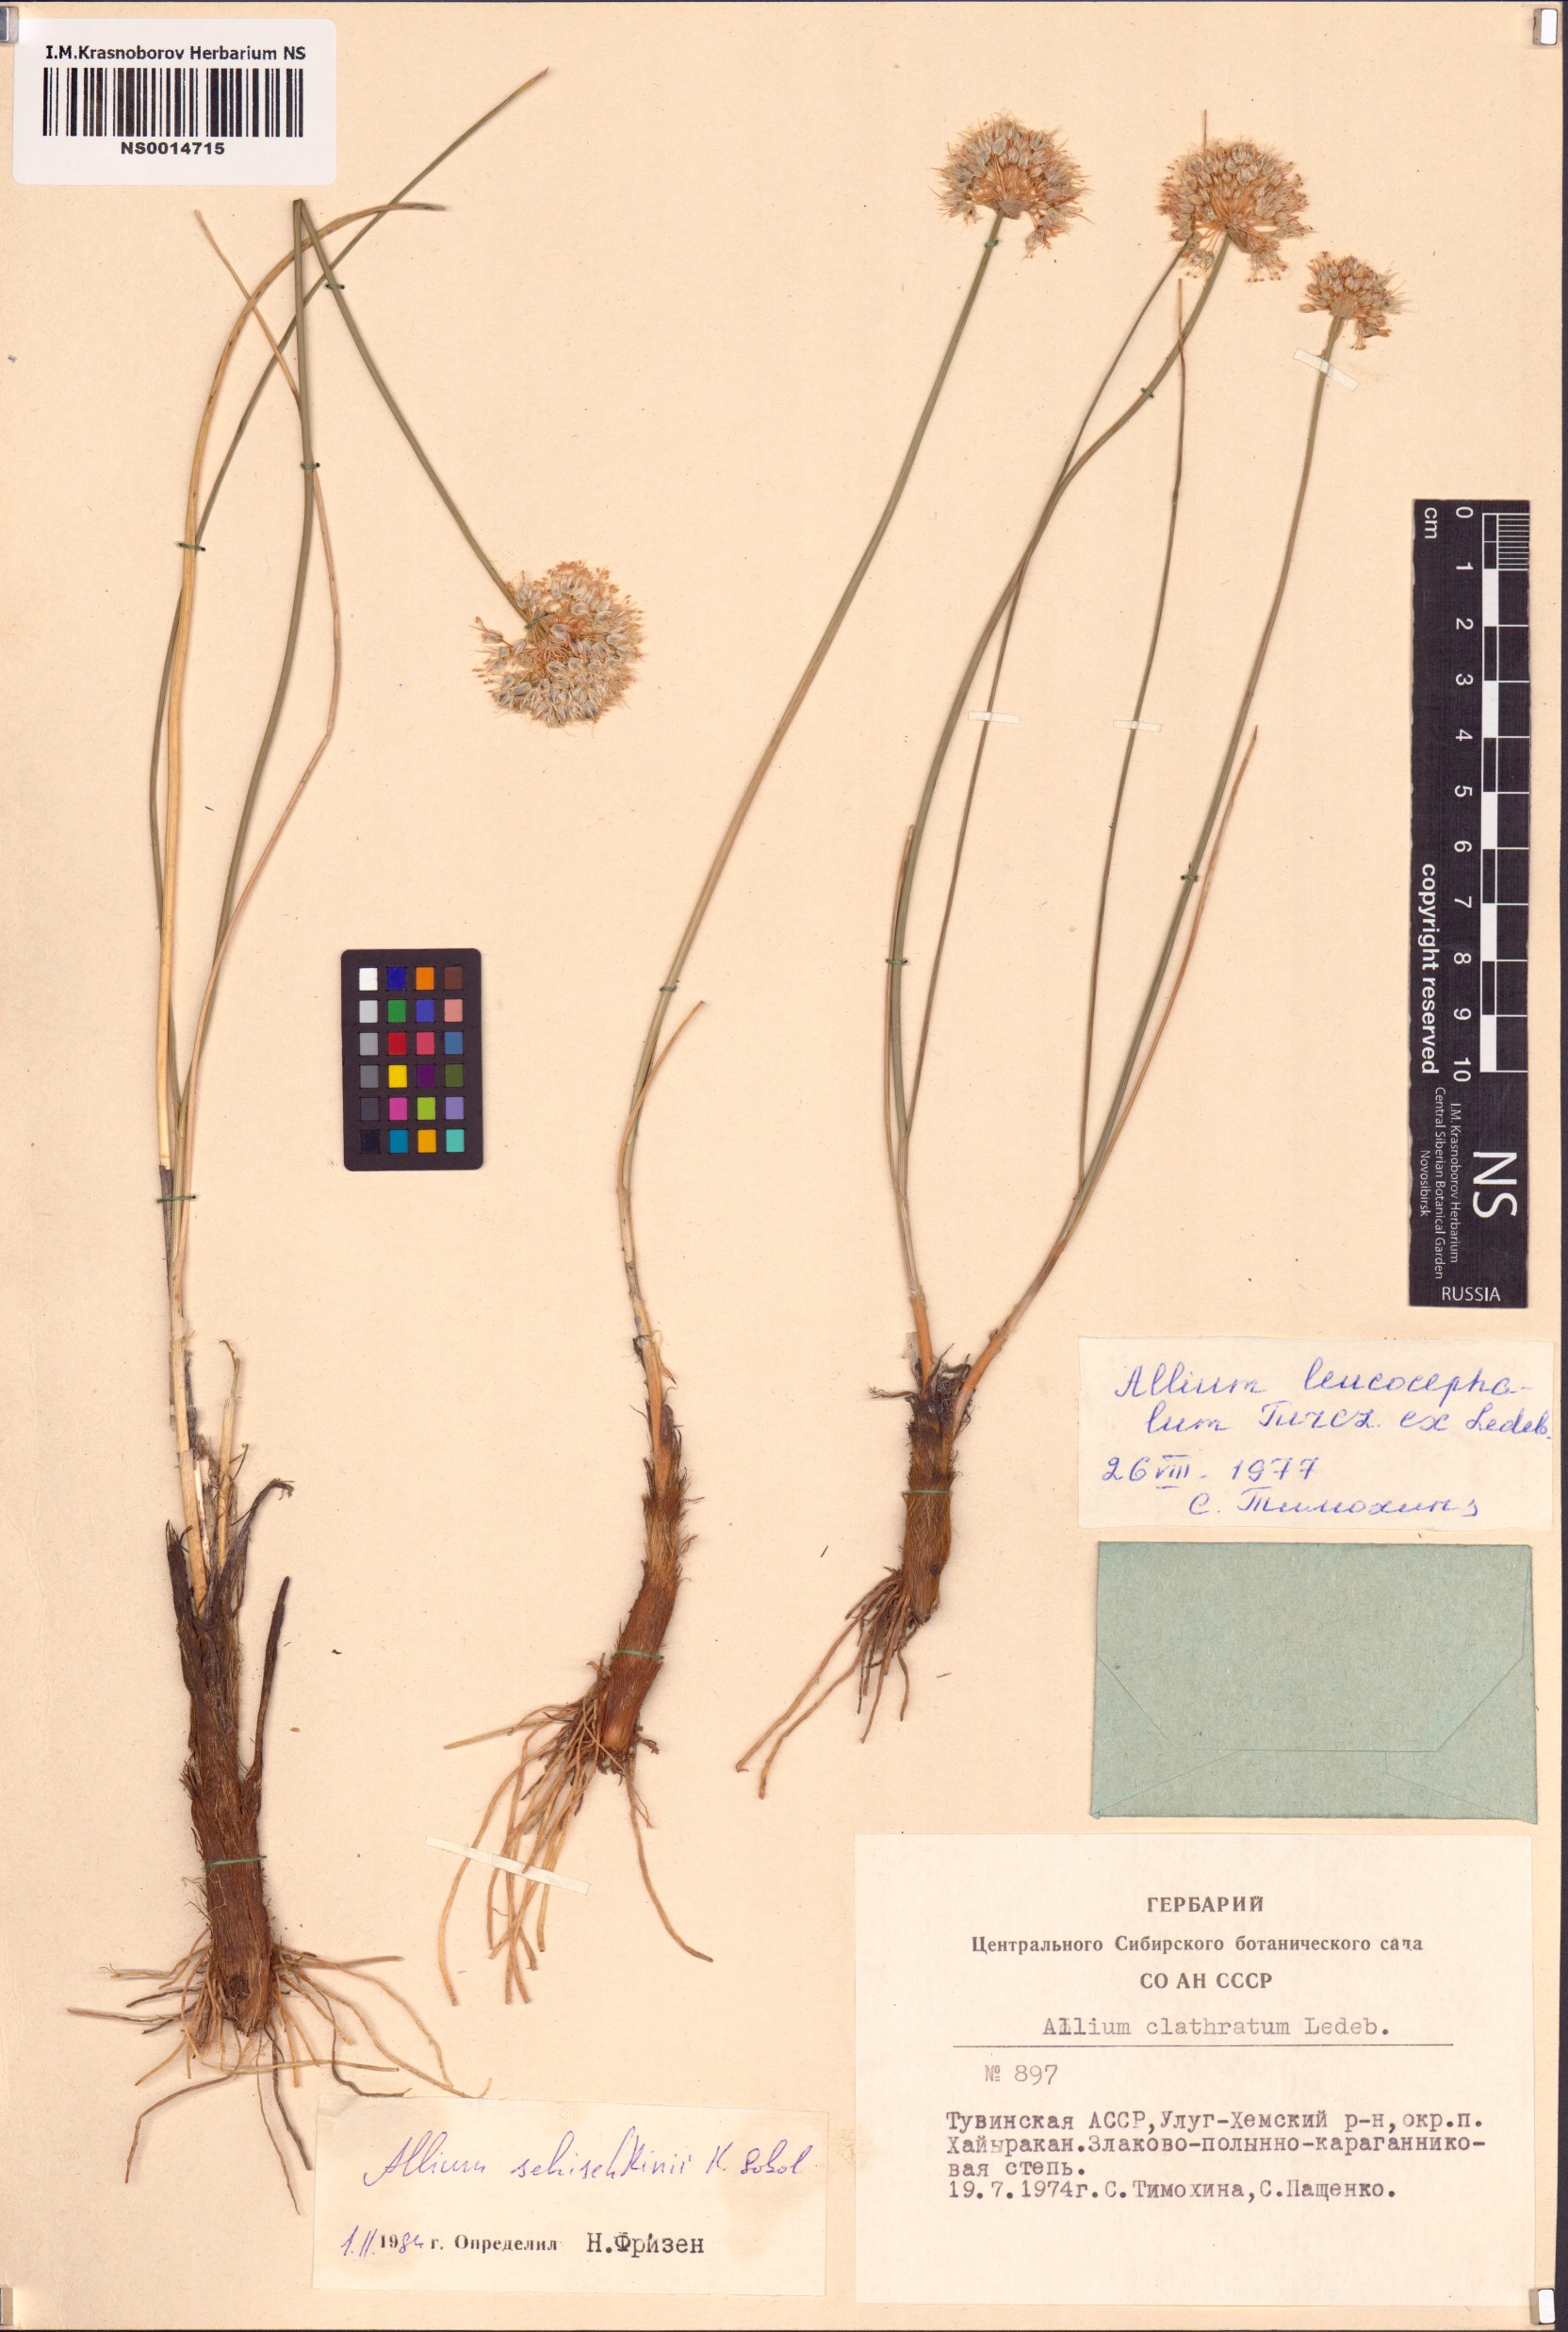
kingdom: Plantae
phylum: Tracheophyta
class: Liliopsida
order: Asparagales
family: Amaryllidaceae
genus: Allium
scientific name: Allium schischkinii
